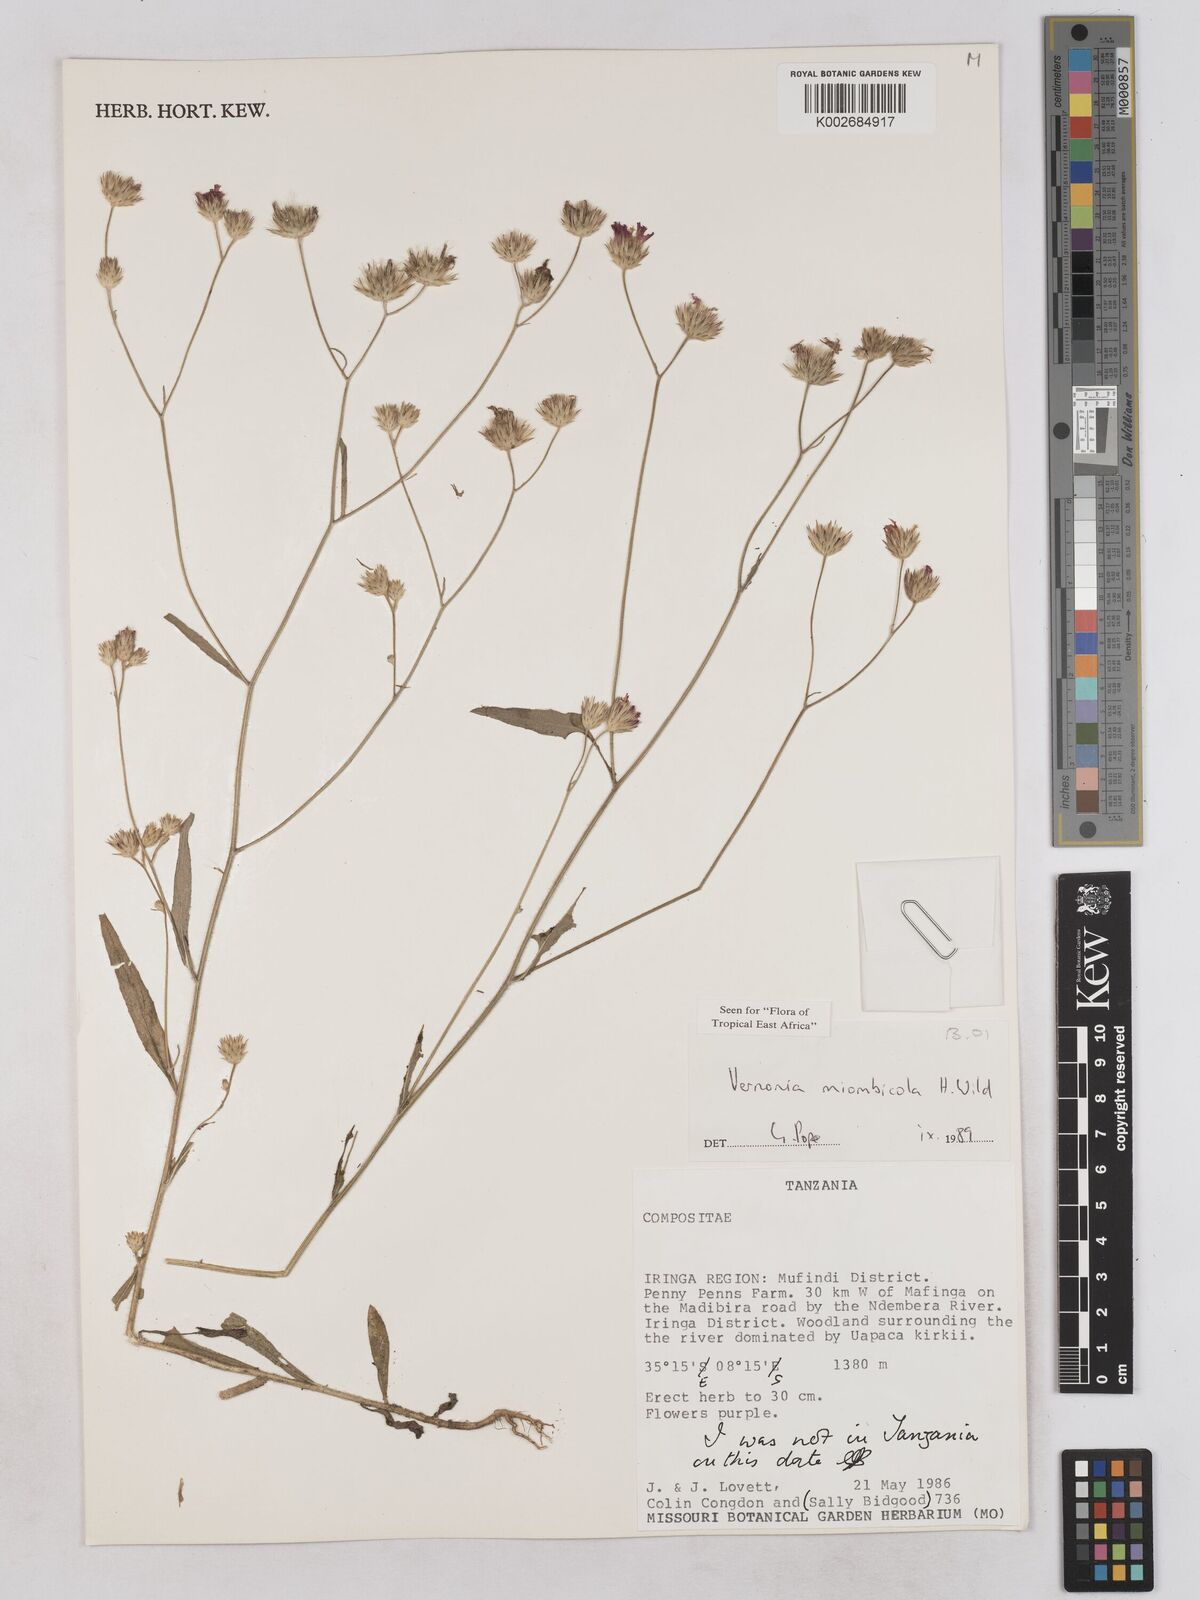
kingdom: Plantae
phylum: Tracheophyta
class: Magnoliopsida
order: Asterales
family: Asteraceae
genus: Vernonia
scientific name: Vernonia miombicola
